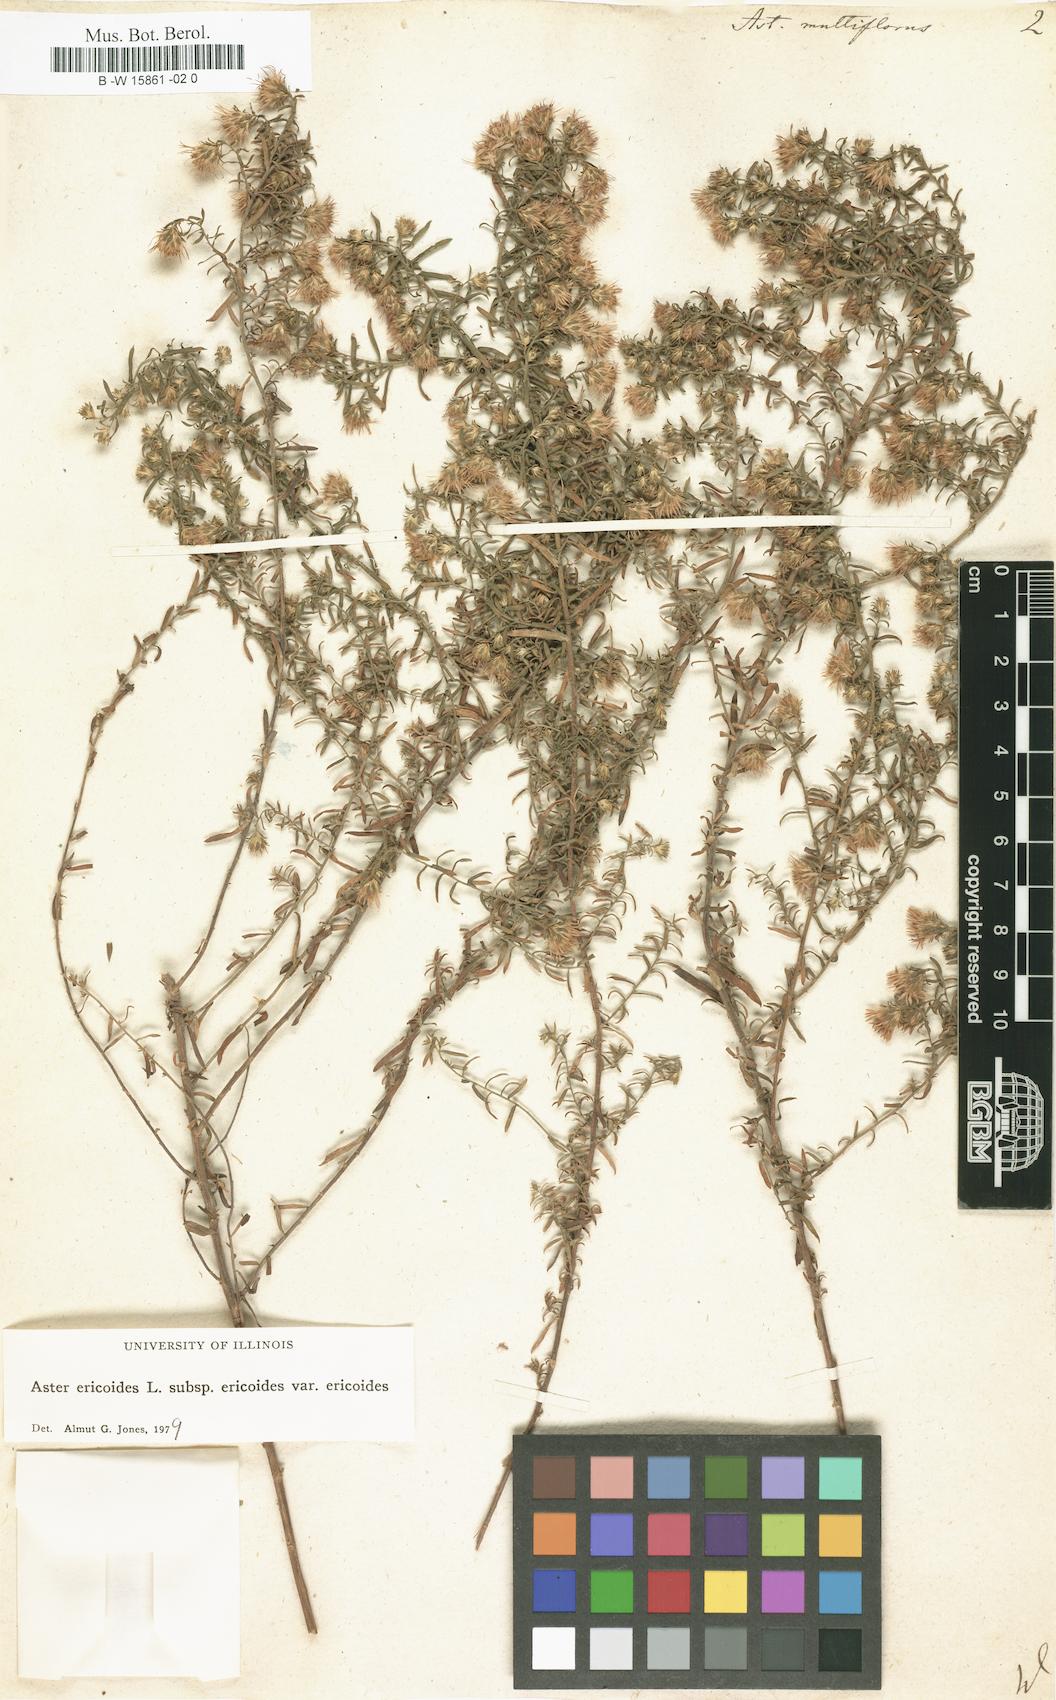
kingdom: Plantae
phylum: Tracheophyta
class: Magnoliopsida
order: Asterales
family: Asteraceae
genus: Symphyotrichum
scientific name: Symphyotrichum ericoides
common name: Heath aster
